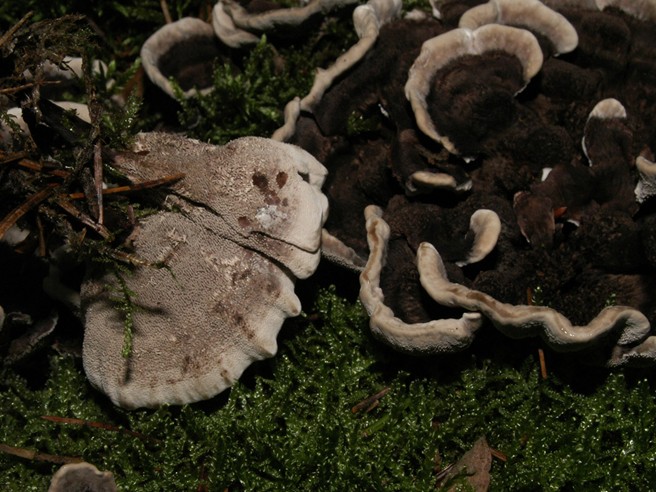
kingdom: Fungi
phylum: Basidiomycota
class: Agaricomycetes
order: Thelephorales
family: Thelephoraceae
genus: Phellodon
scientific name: Phellodon tomentosus
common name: vellugtende duftpigsvamp
